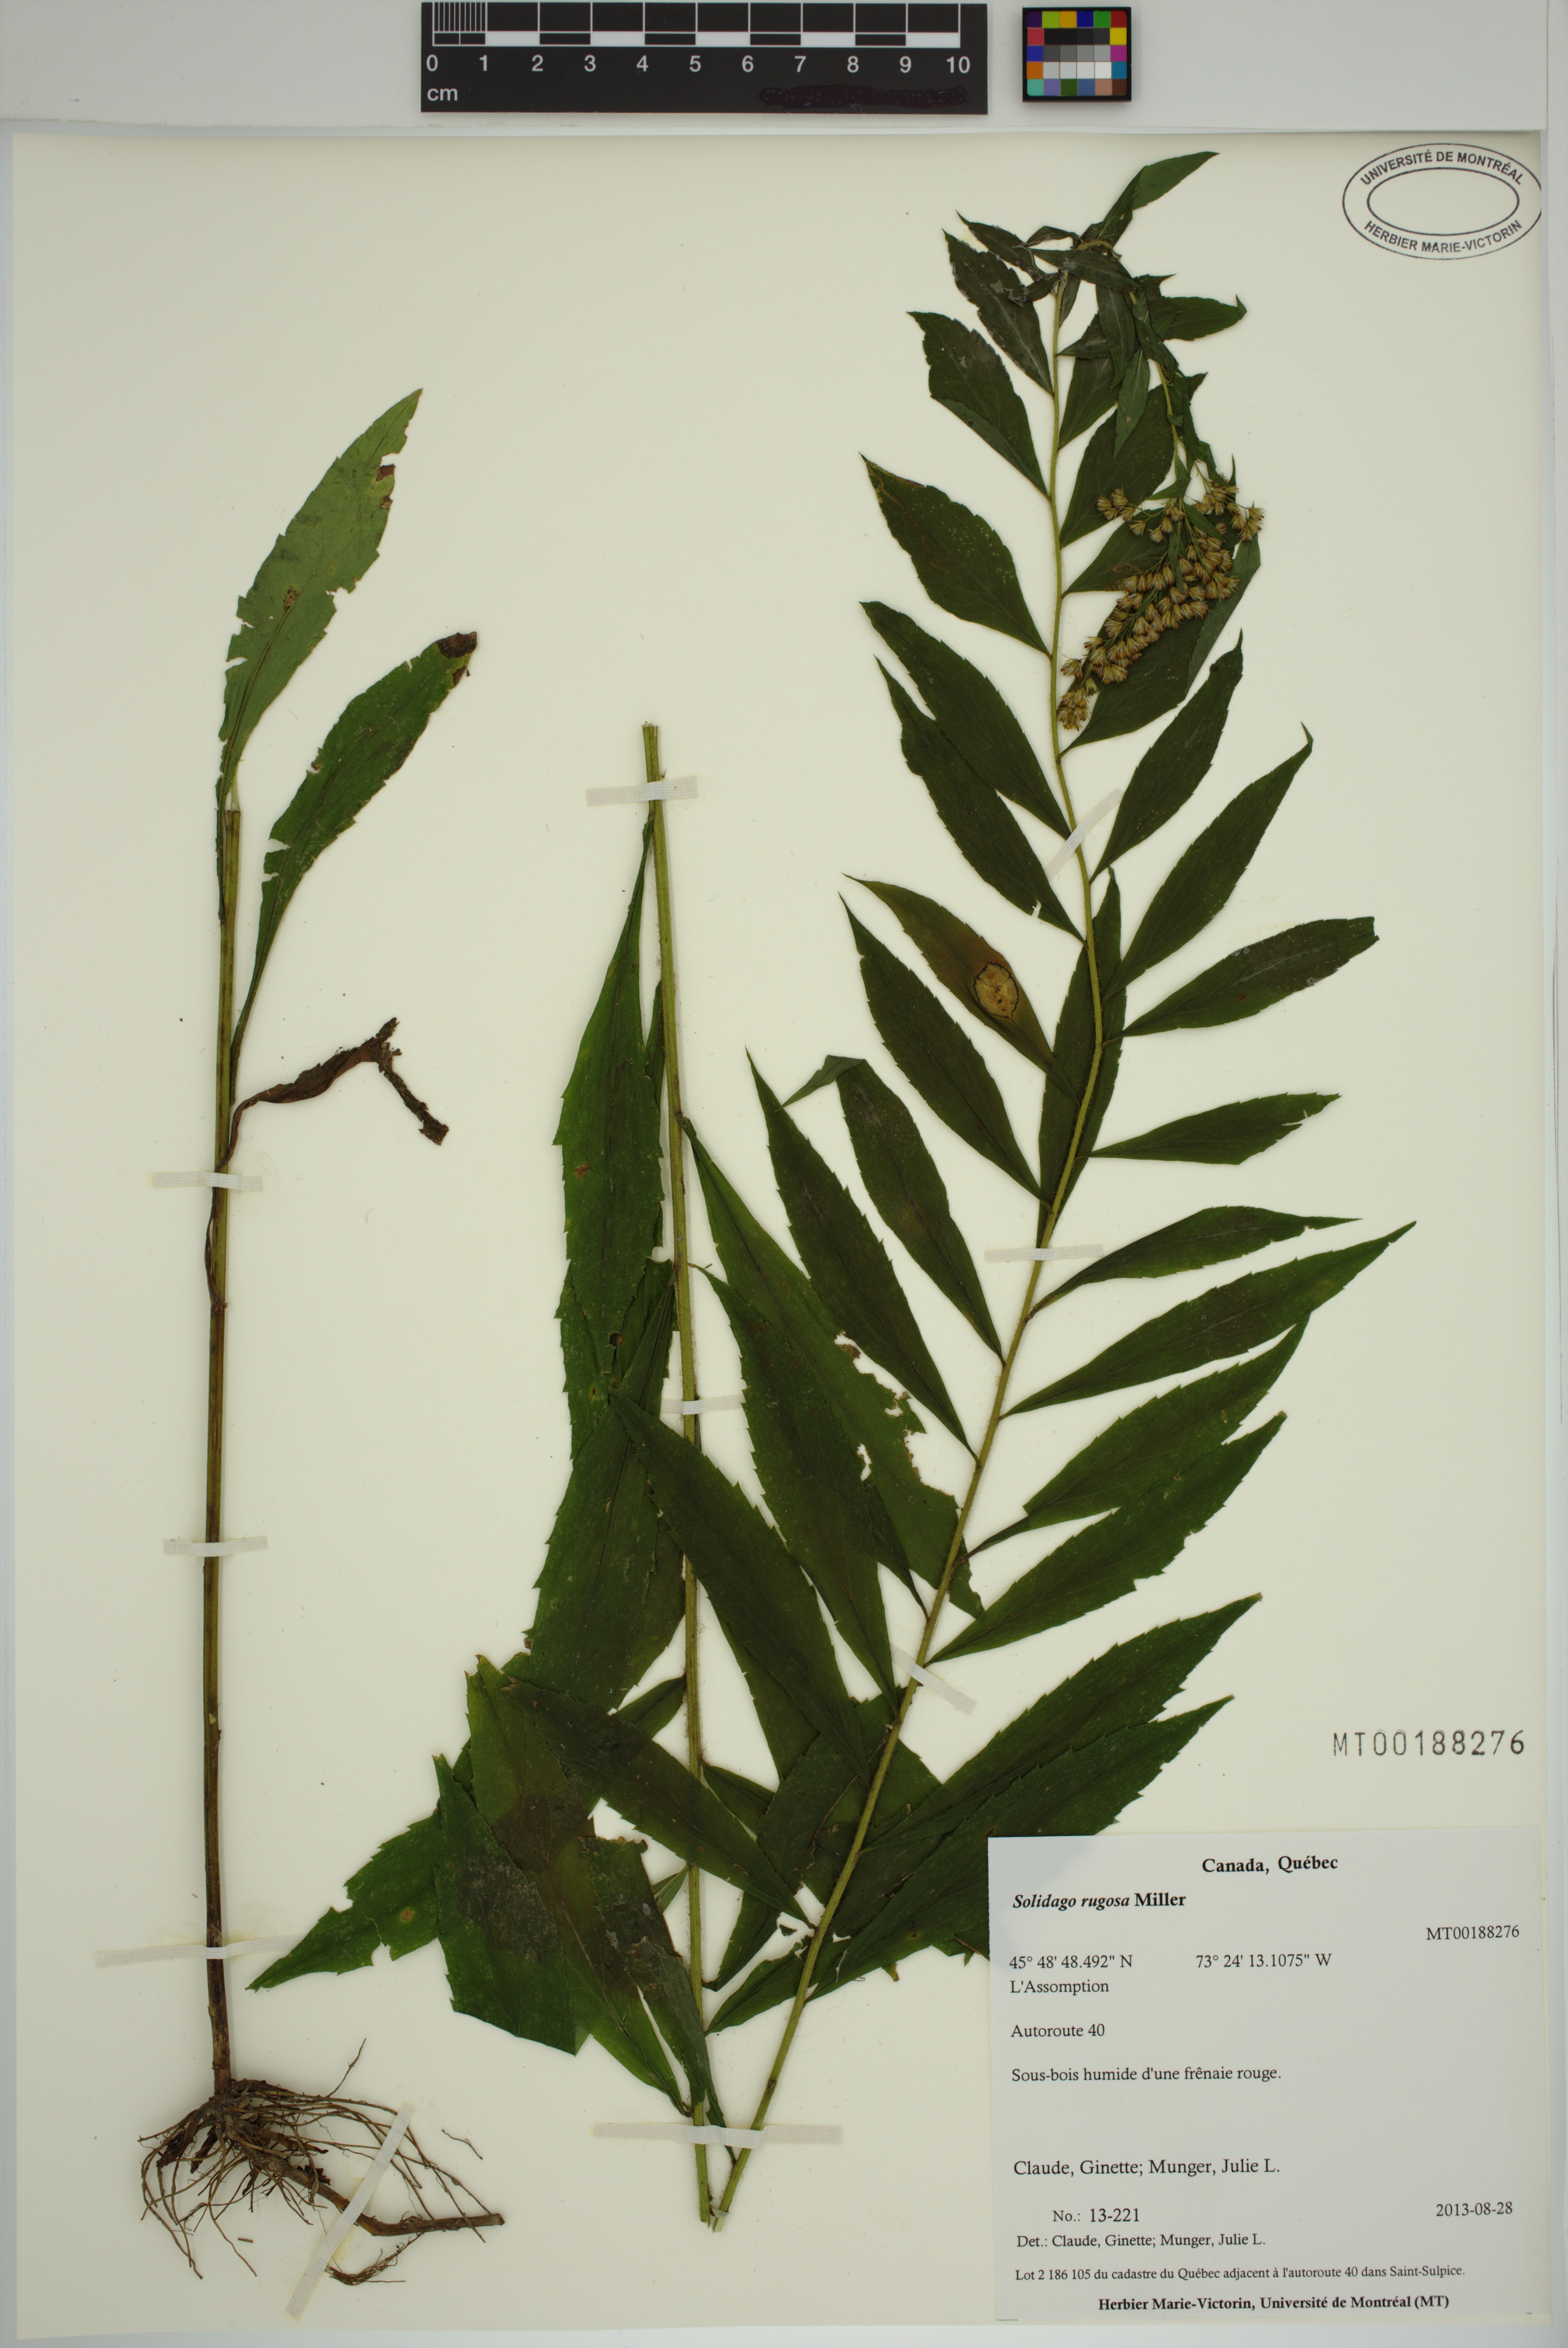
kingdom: Plantae
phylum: Tracheophyta
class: Magnoliopsida
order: Asterales
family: Asteraceae
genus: Solidago
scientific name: Solidago rugosa
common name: Rough-stemmed goldenrod
